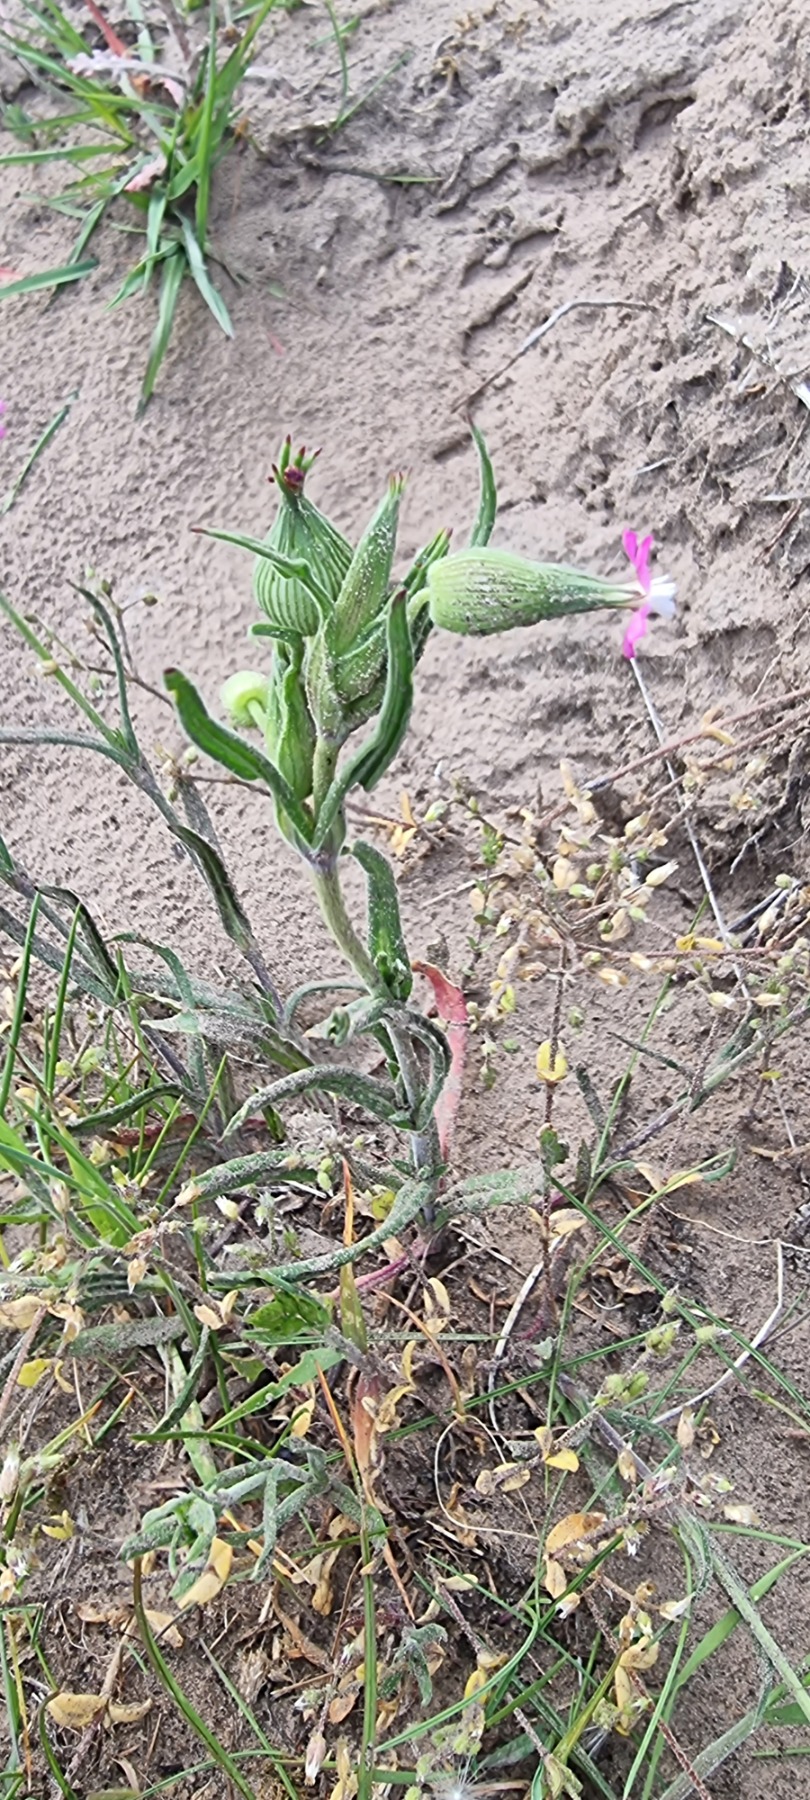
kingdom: Plantae
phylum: Tracheophyta
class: Magnoliopsida
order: Caryophyllales
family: Caryophyllaceae
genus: Silene
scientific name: Silene conica
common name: Kegle-limurt
